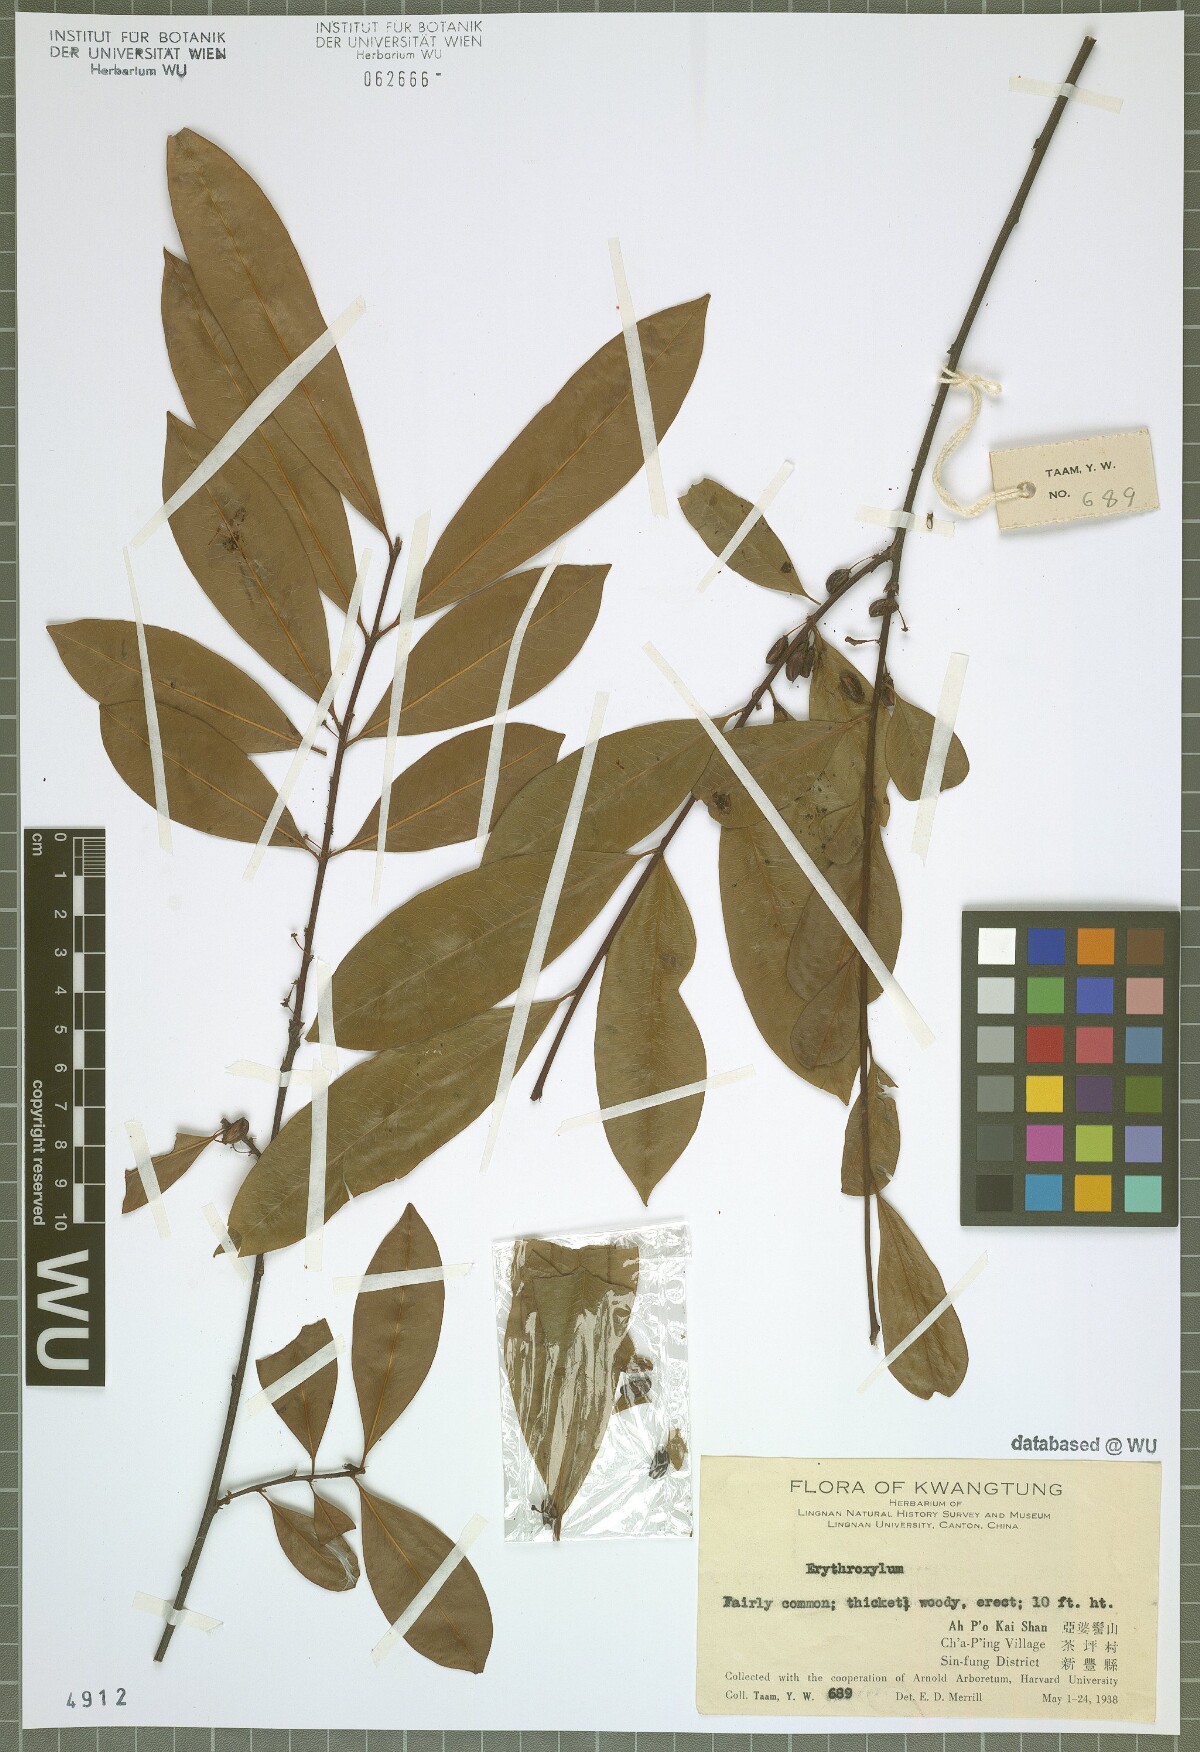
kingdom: Plantae
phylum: Tracheophyta
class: Magnoliopsida
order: Malpighiales
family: Erythroxylaceae
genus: Erythroxylum
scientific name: Erythroxylum
